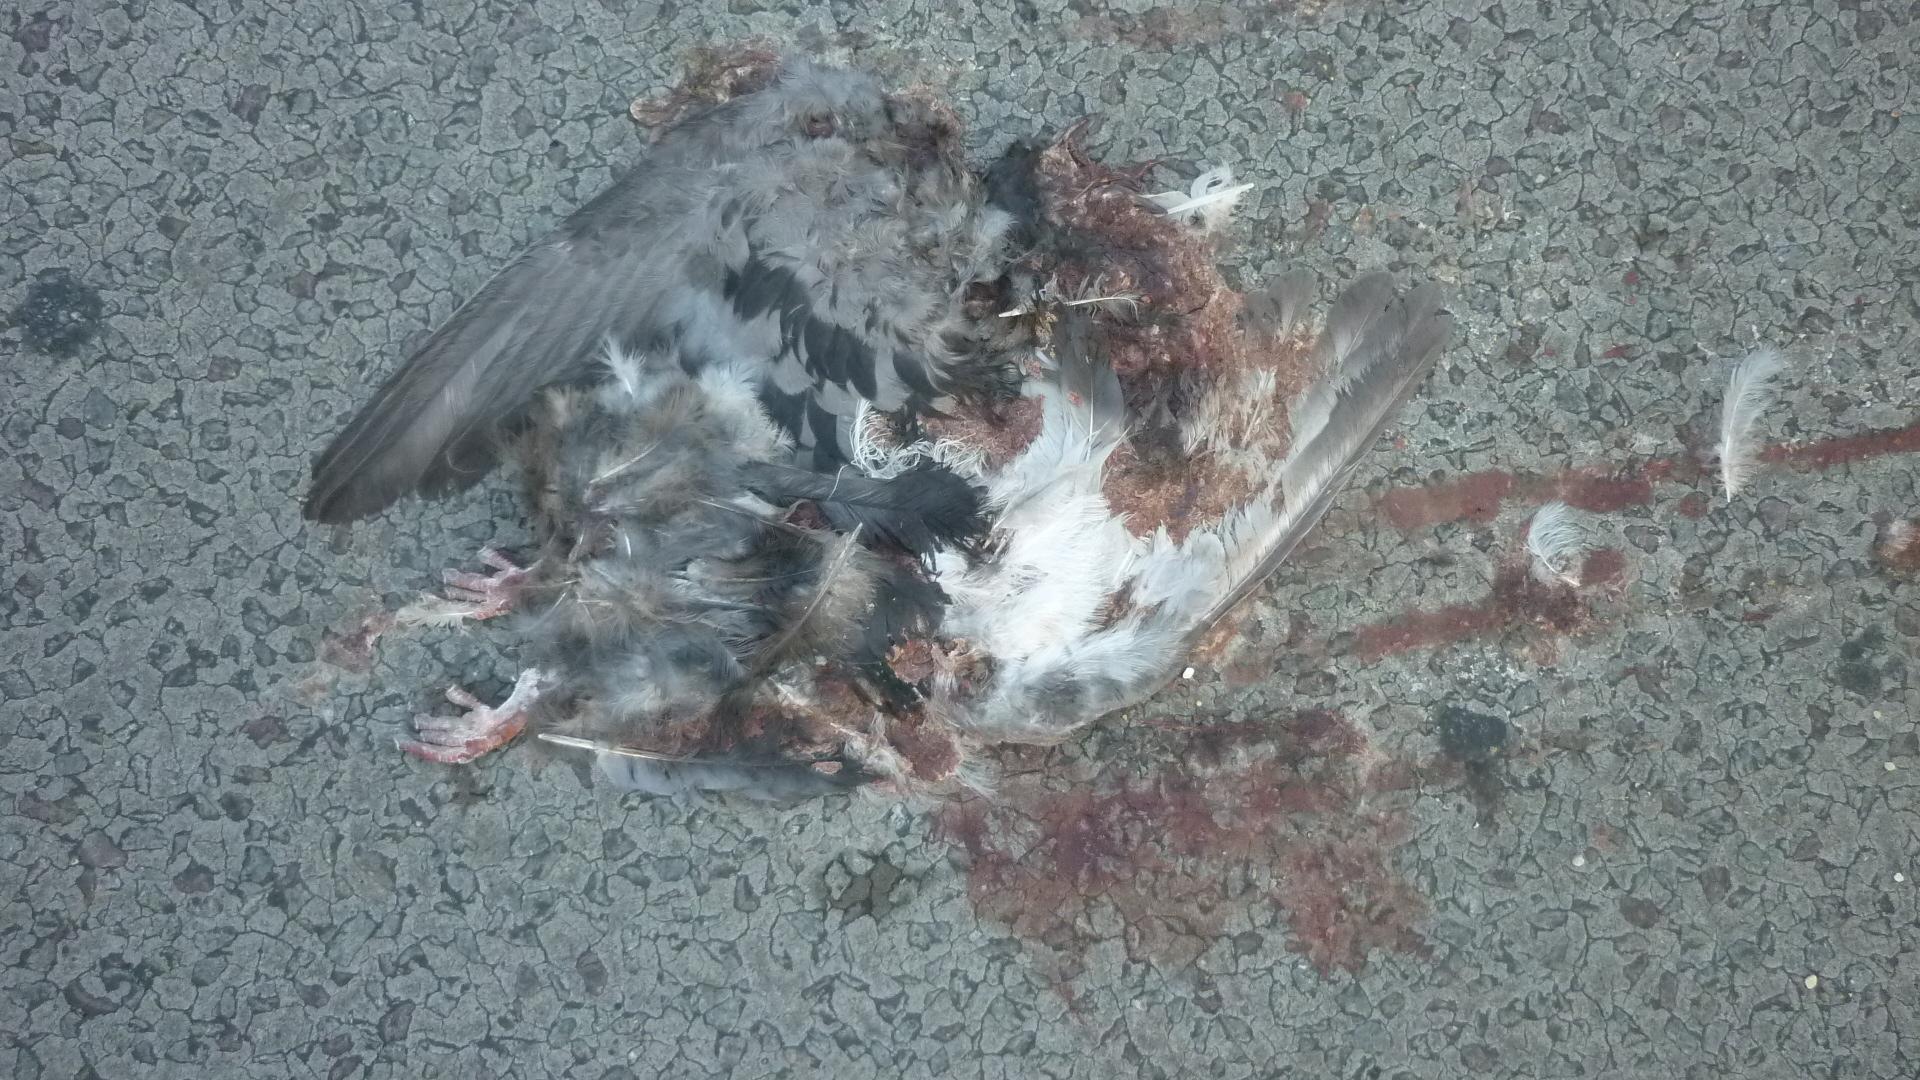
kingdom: Animalia
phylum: Chordata
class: Aves
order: Columbiformes
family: Columbidae
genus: Columba
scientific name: Columba livia
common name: Rock pigeon
